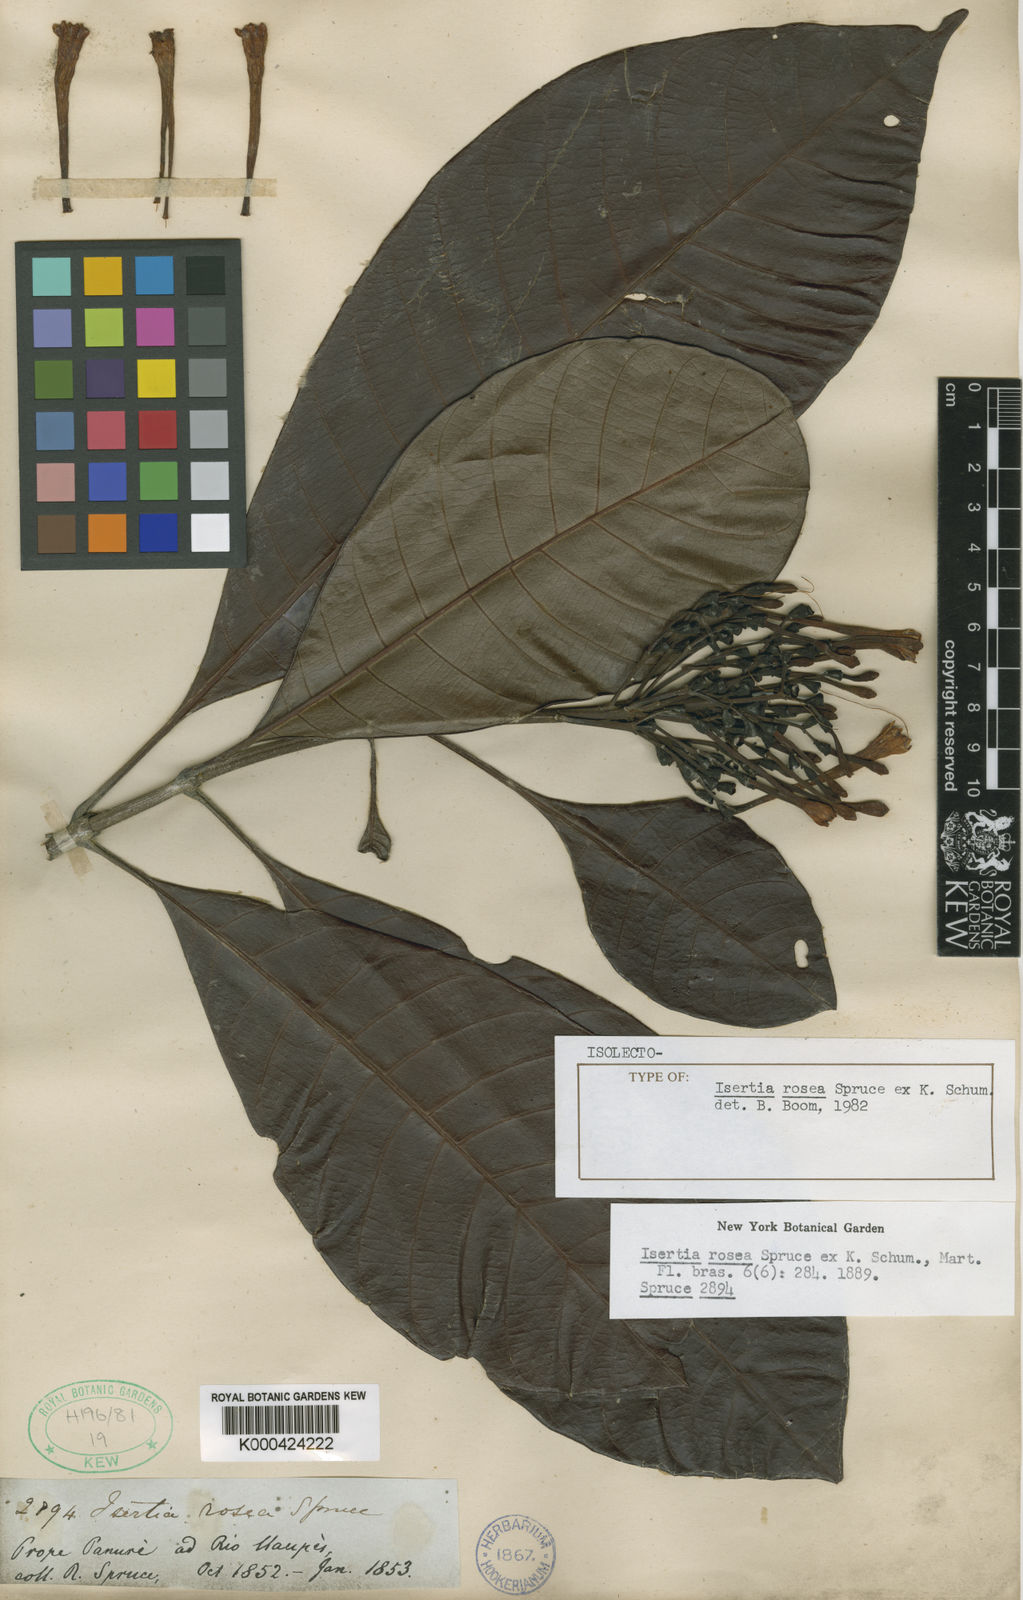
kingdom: Plantae
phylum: Tracheophyta
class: Magnoliopsida
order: Gentianales
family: Rubiaceae
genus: Isertia
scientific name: Isertia rosea
